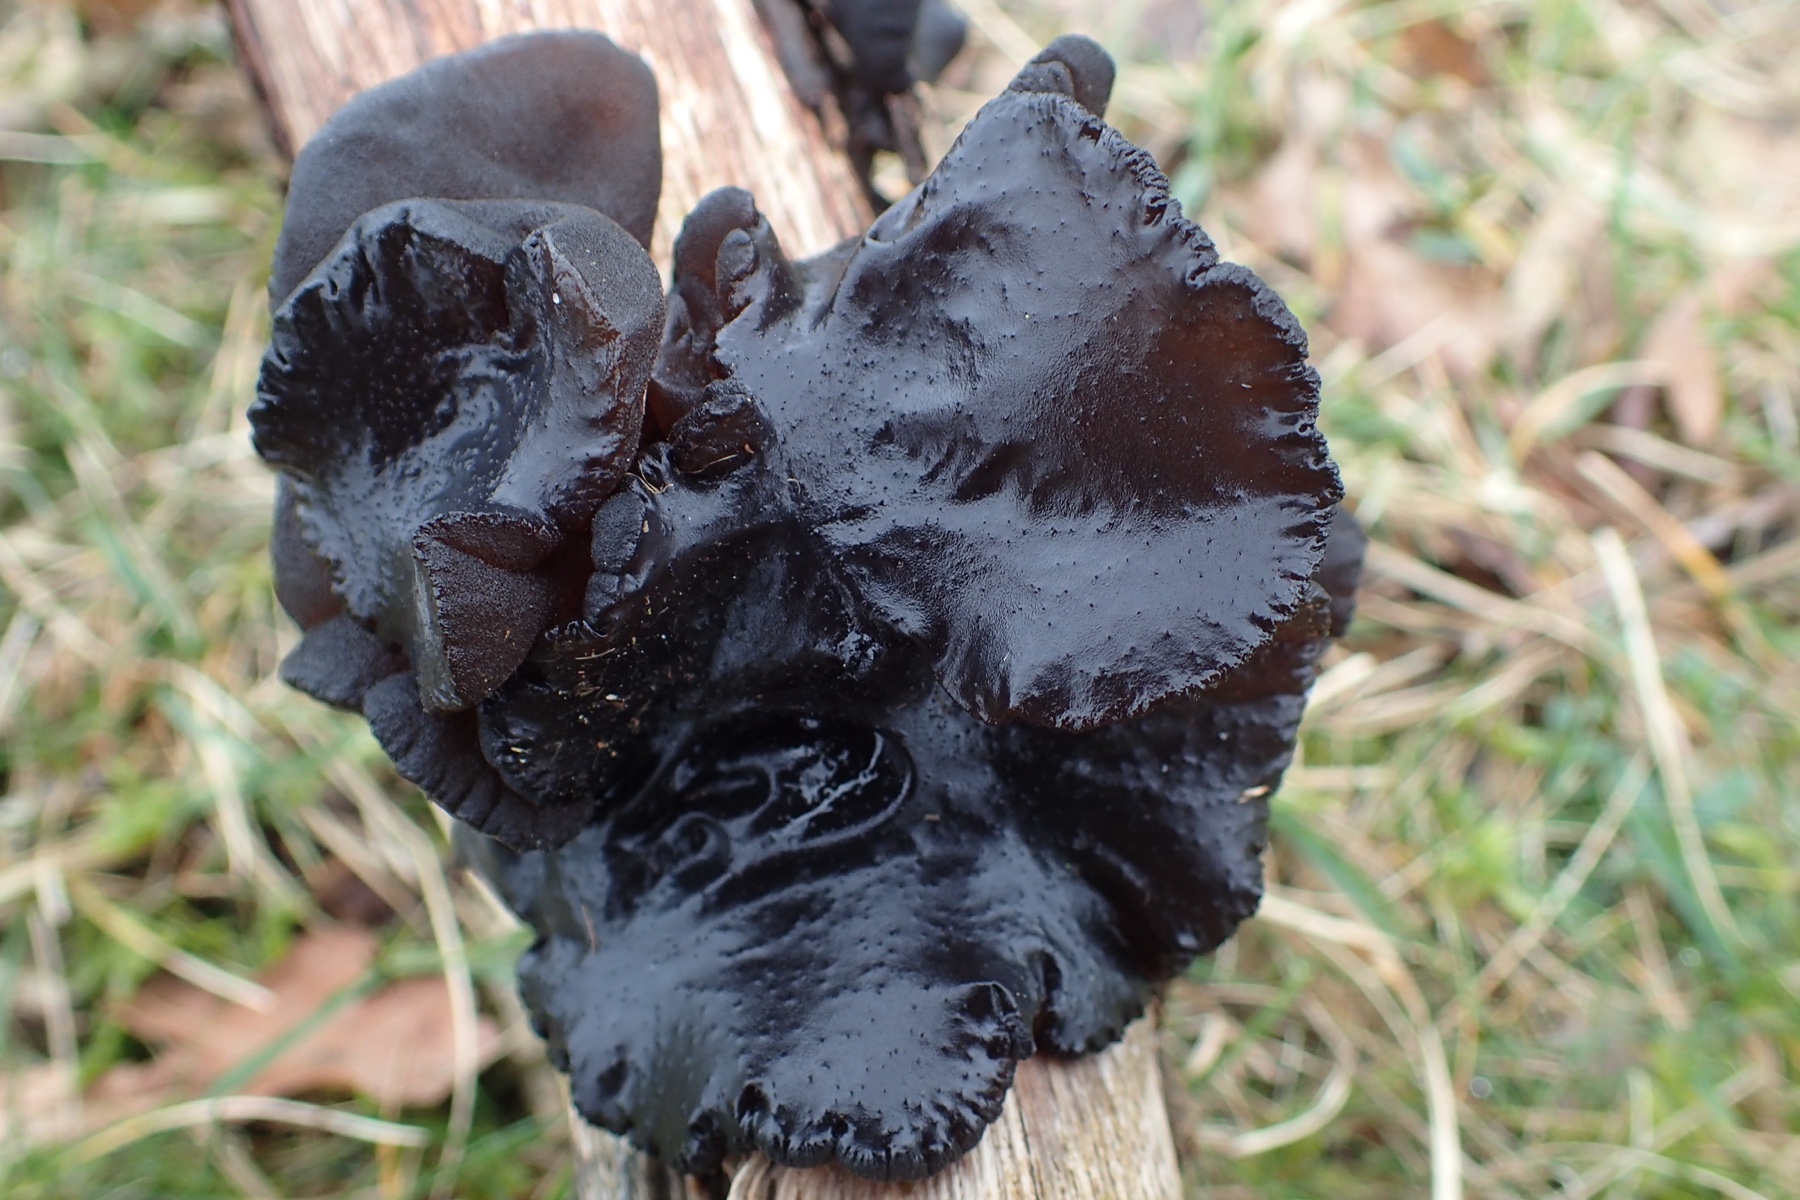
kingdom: Fungi
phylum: Basidiomycota
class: Agaricomycetes
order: Auriculariales
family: Auriculariaceae
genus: Exidia
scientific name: Exidia glandulosa
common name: ege-bævretop
